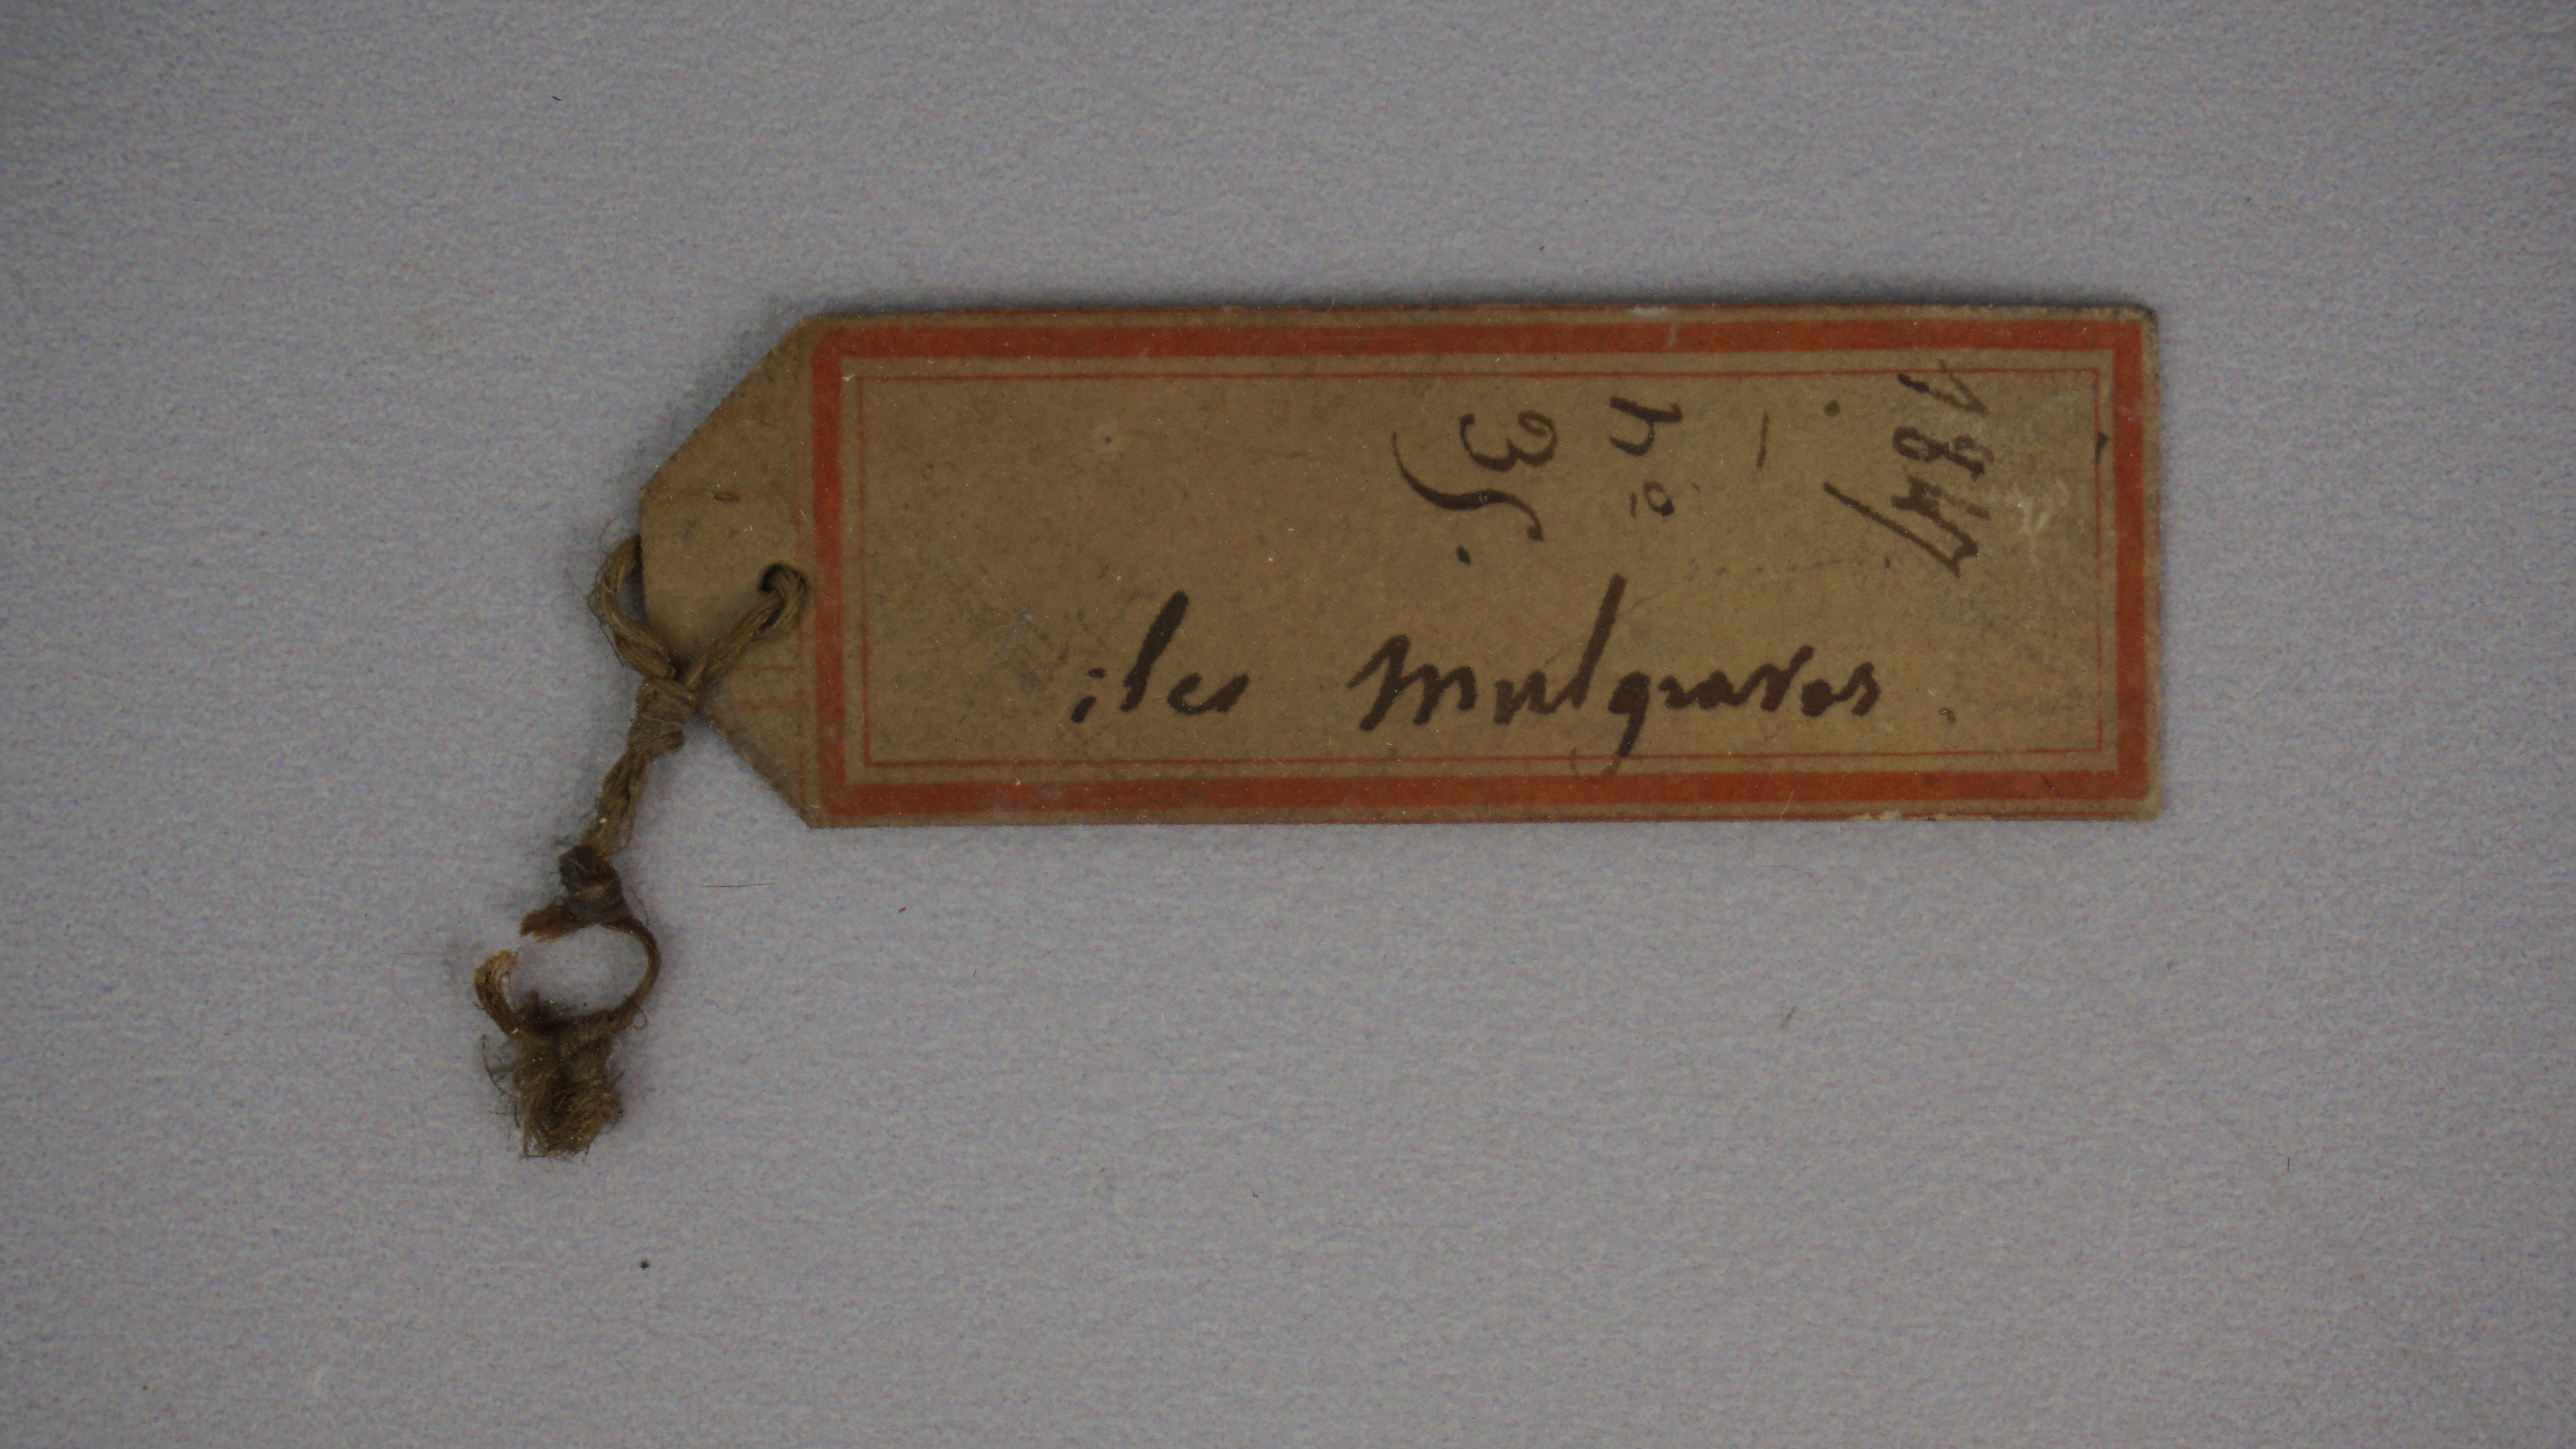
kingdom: Animalia
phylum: Chordata
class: Aves
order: Charadriiformes
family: Scolopacidae
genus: Limosa
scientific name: Limosa lapponica
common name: Bar-tailed godwit
